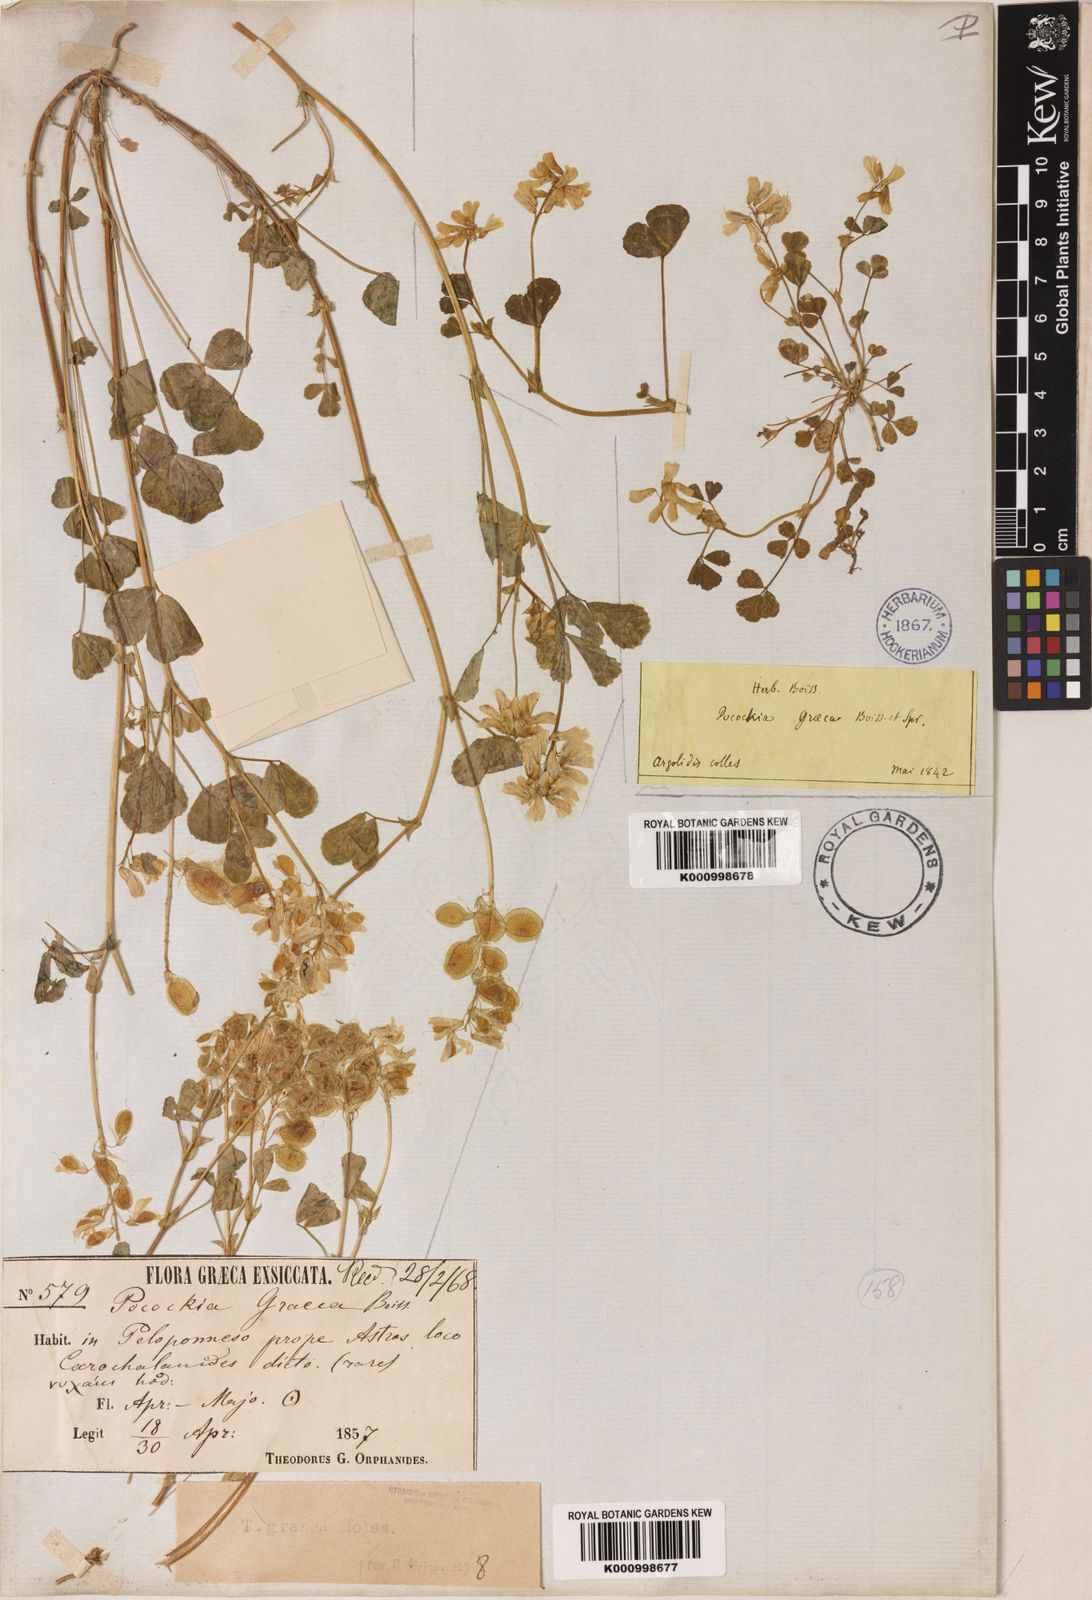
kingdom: Plantae
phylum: Tracheophyta
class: Magnoliopsida
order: Fabales
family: Fabaceae
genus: Trigonella
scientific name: Trigonella graeca
